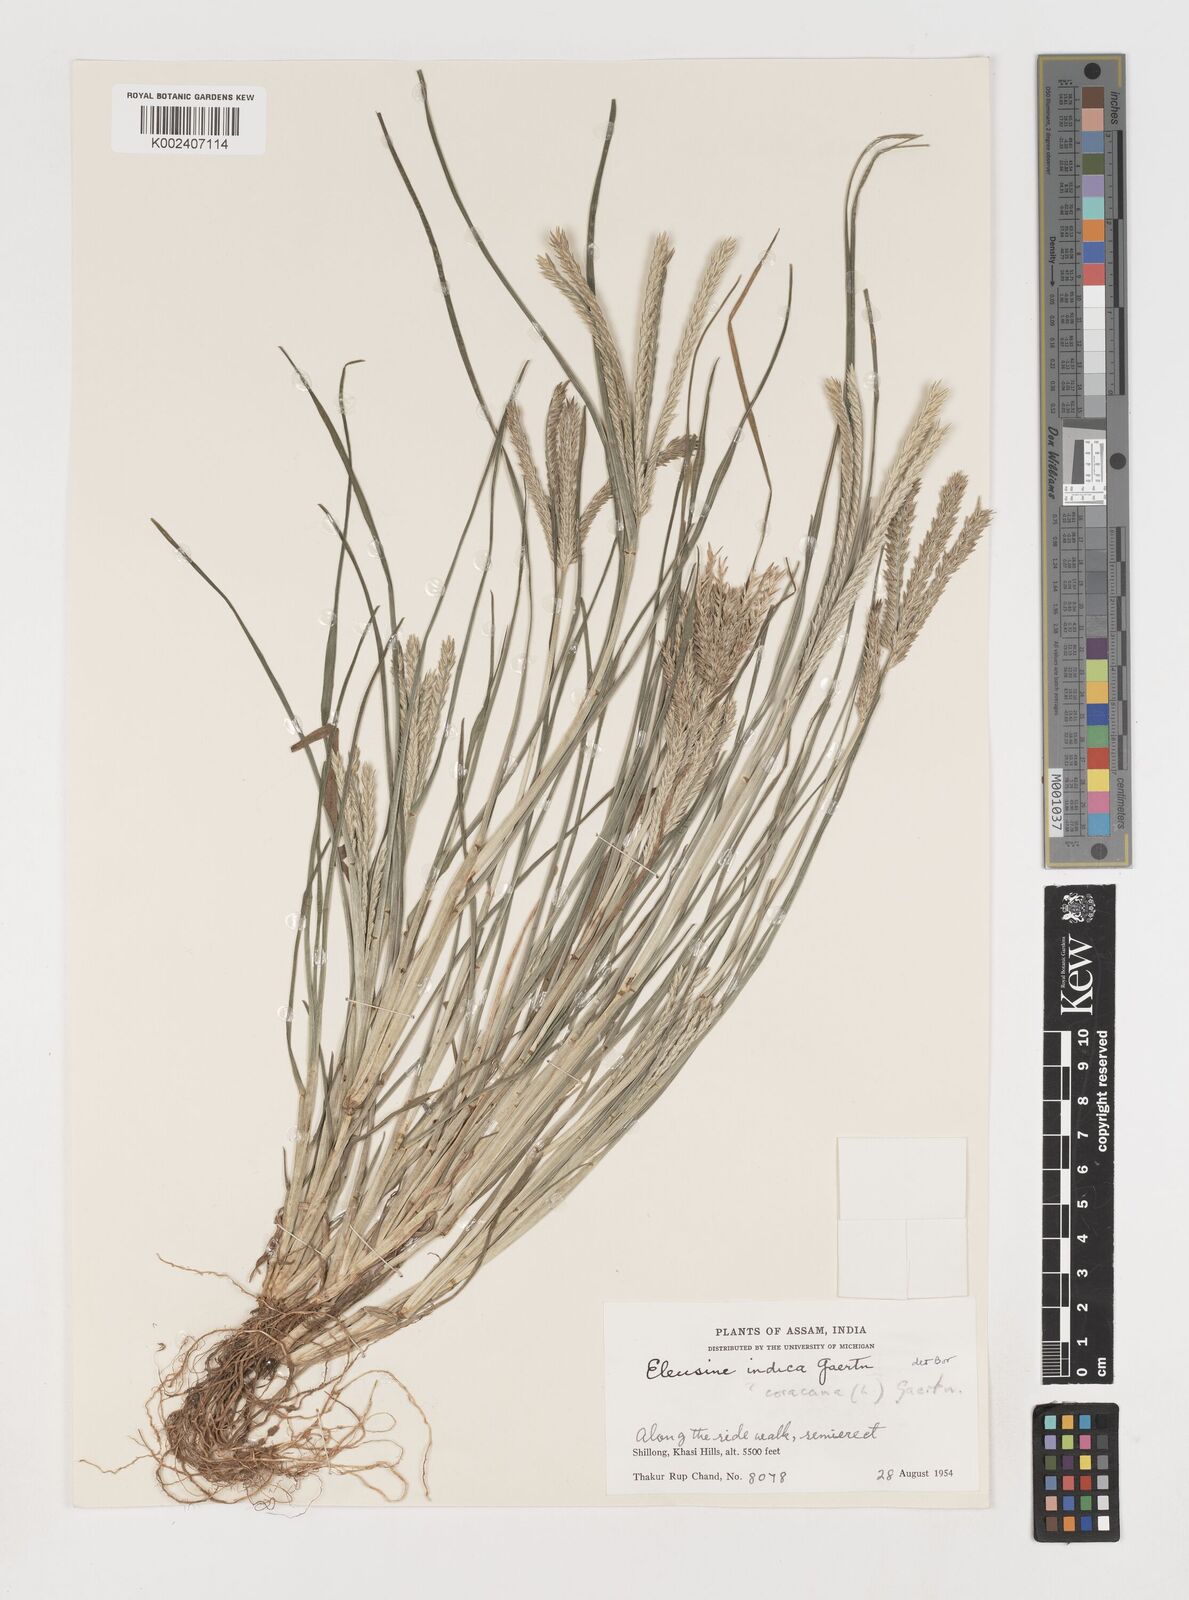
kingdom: Plantae
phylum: Tracheophyta
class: Liliopsida
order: Poales
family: Poaceae
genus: Eleusine
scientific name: Eleusine indica
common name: Yard-grass
